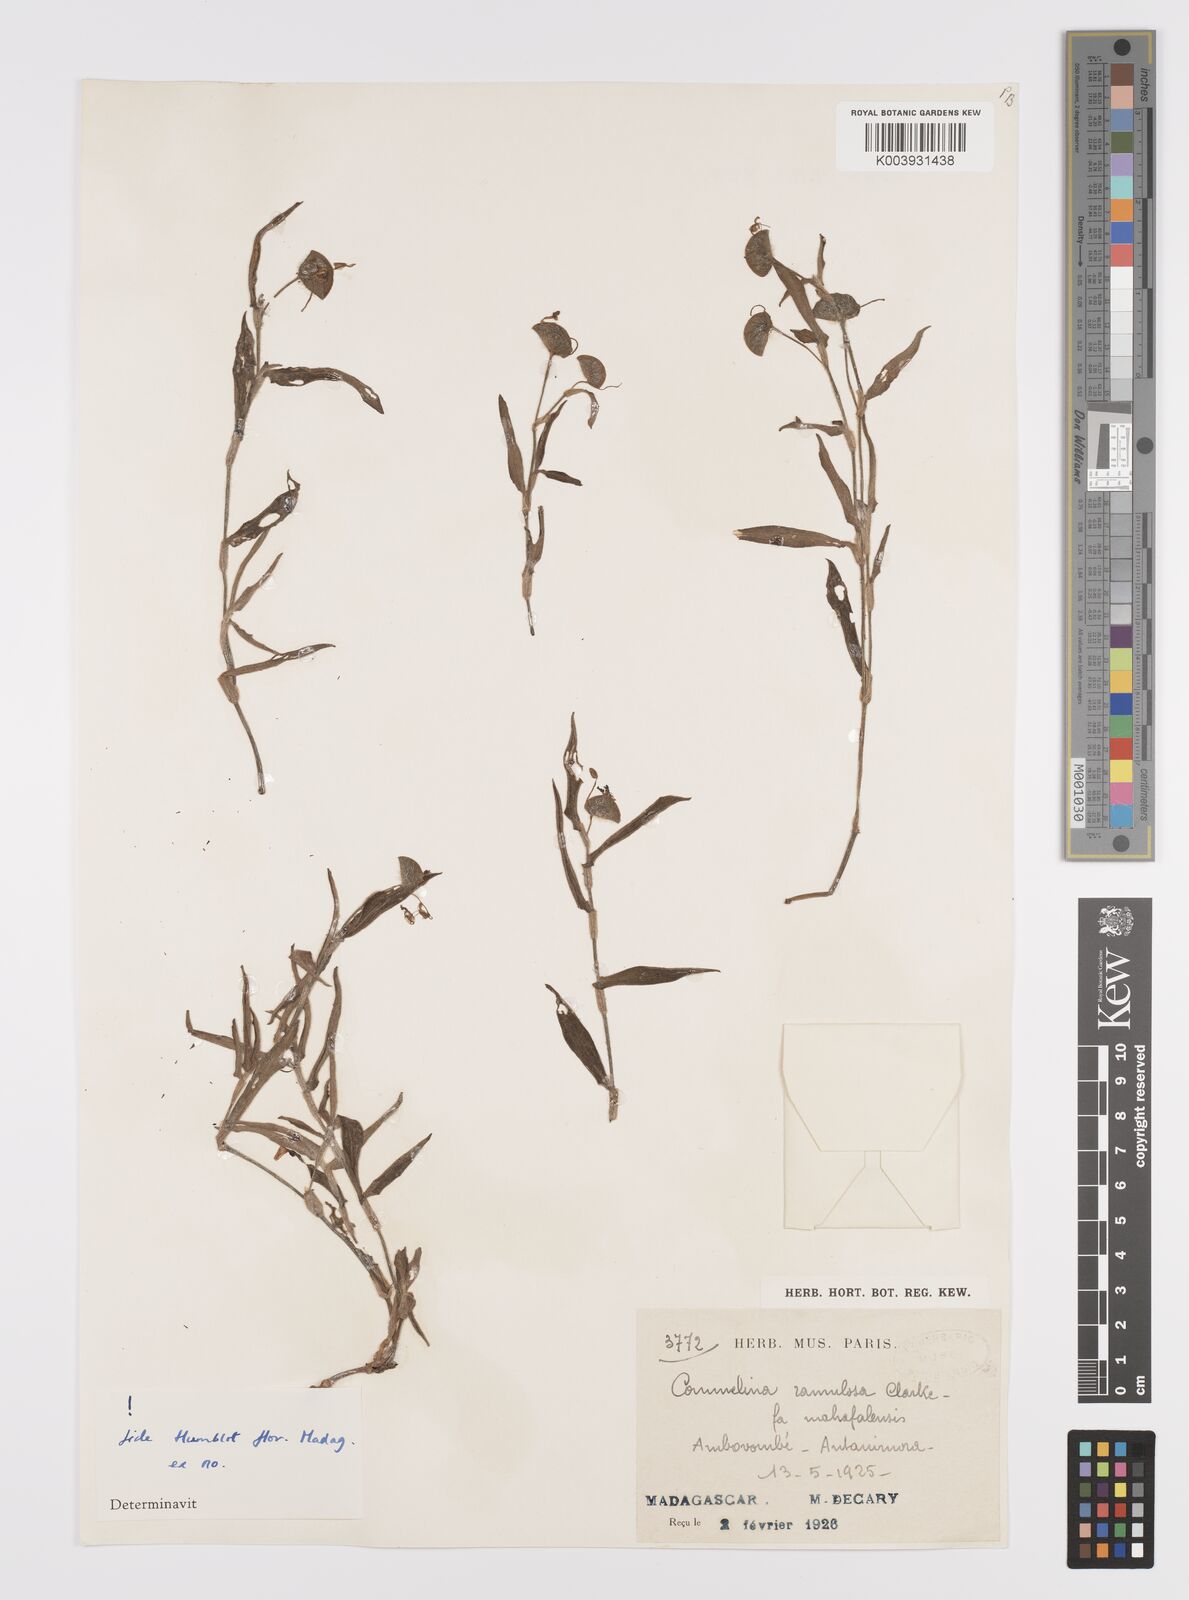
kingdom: Plantae
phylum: Tracheophyta
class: Liliopsida
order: Commelinales
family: Commelinaceae
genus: Commelina
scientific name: Commelina ramulosa
